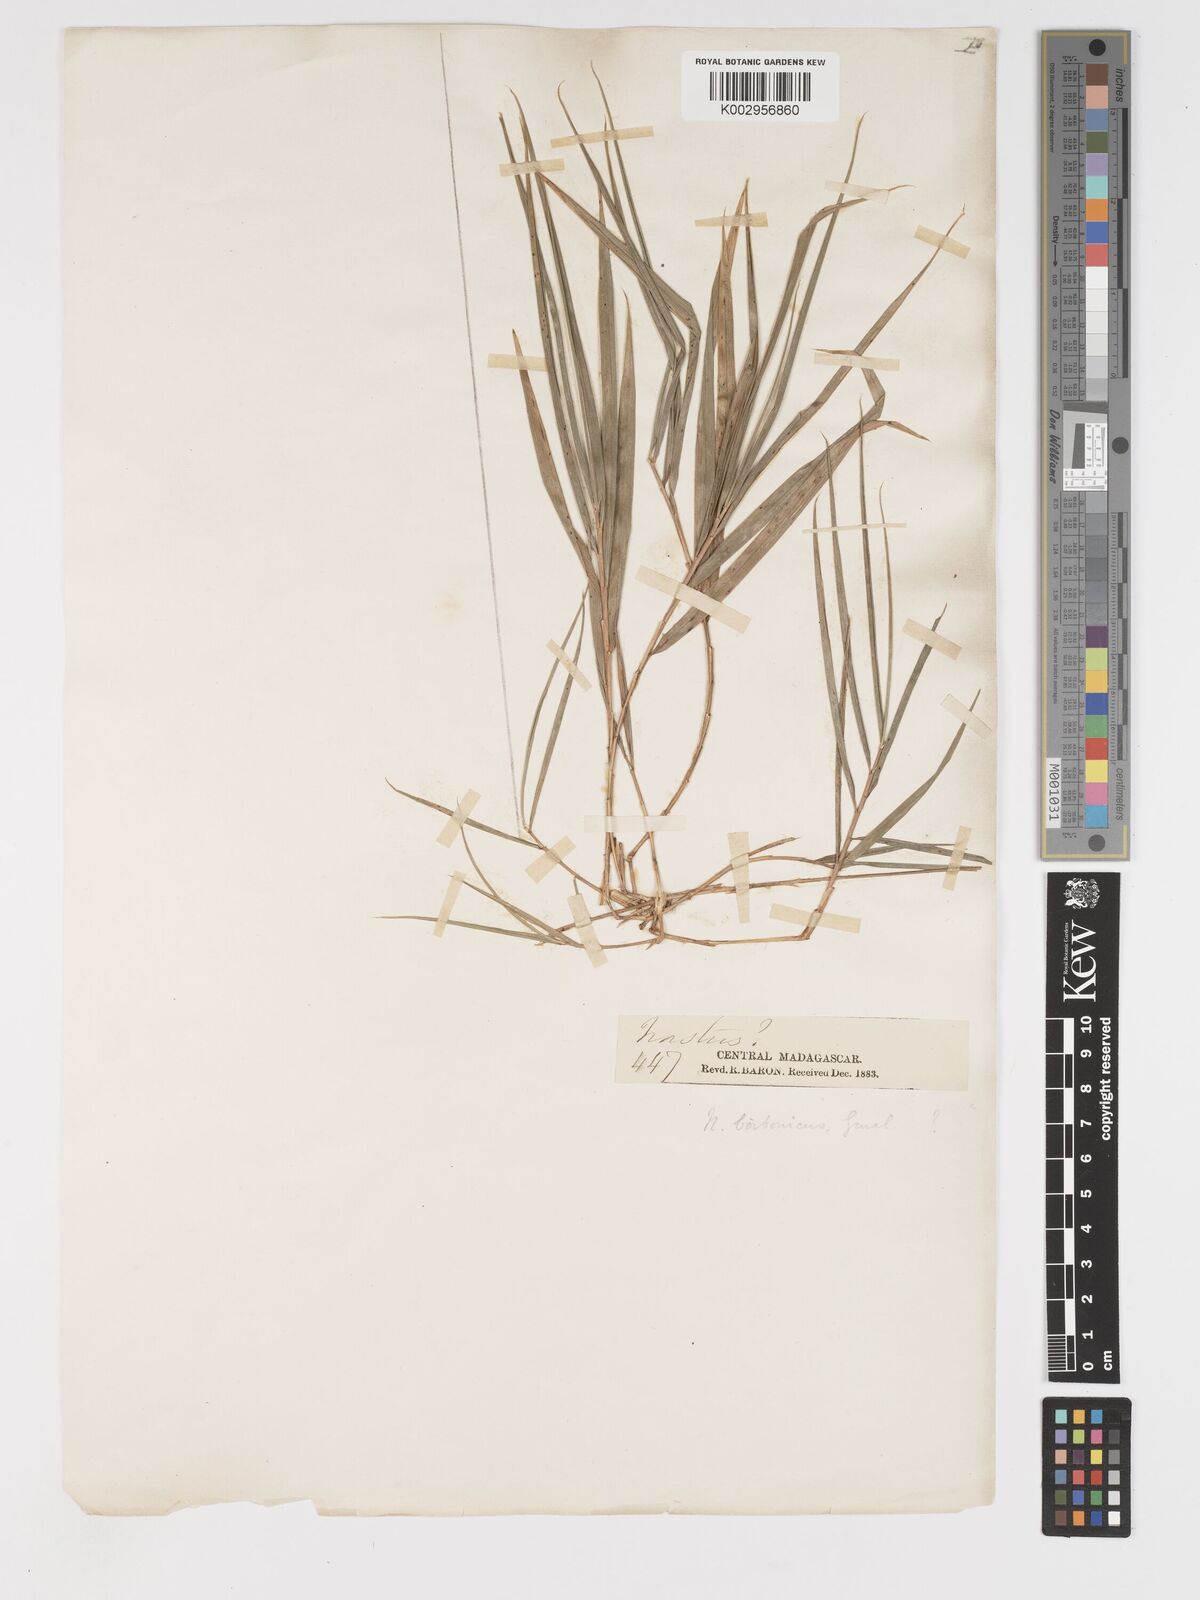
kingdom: Plantae
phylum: Tracheophyta
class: Liliopsida
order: Poales
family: Poaceae
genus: Nastus
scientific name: Nastus emirnensis
